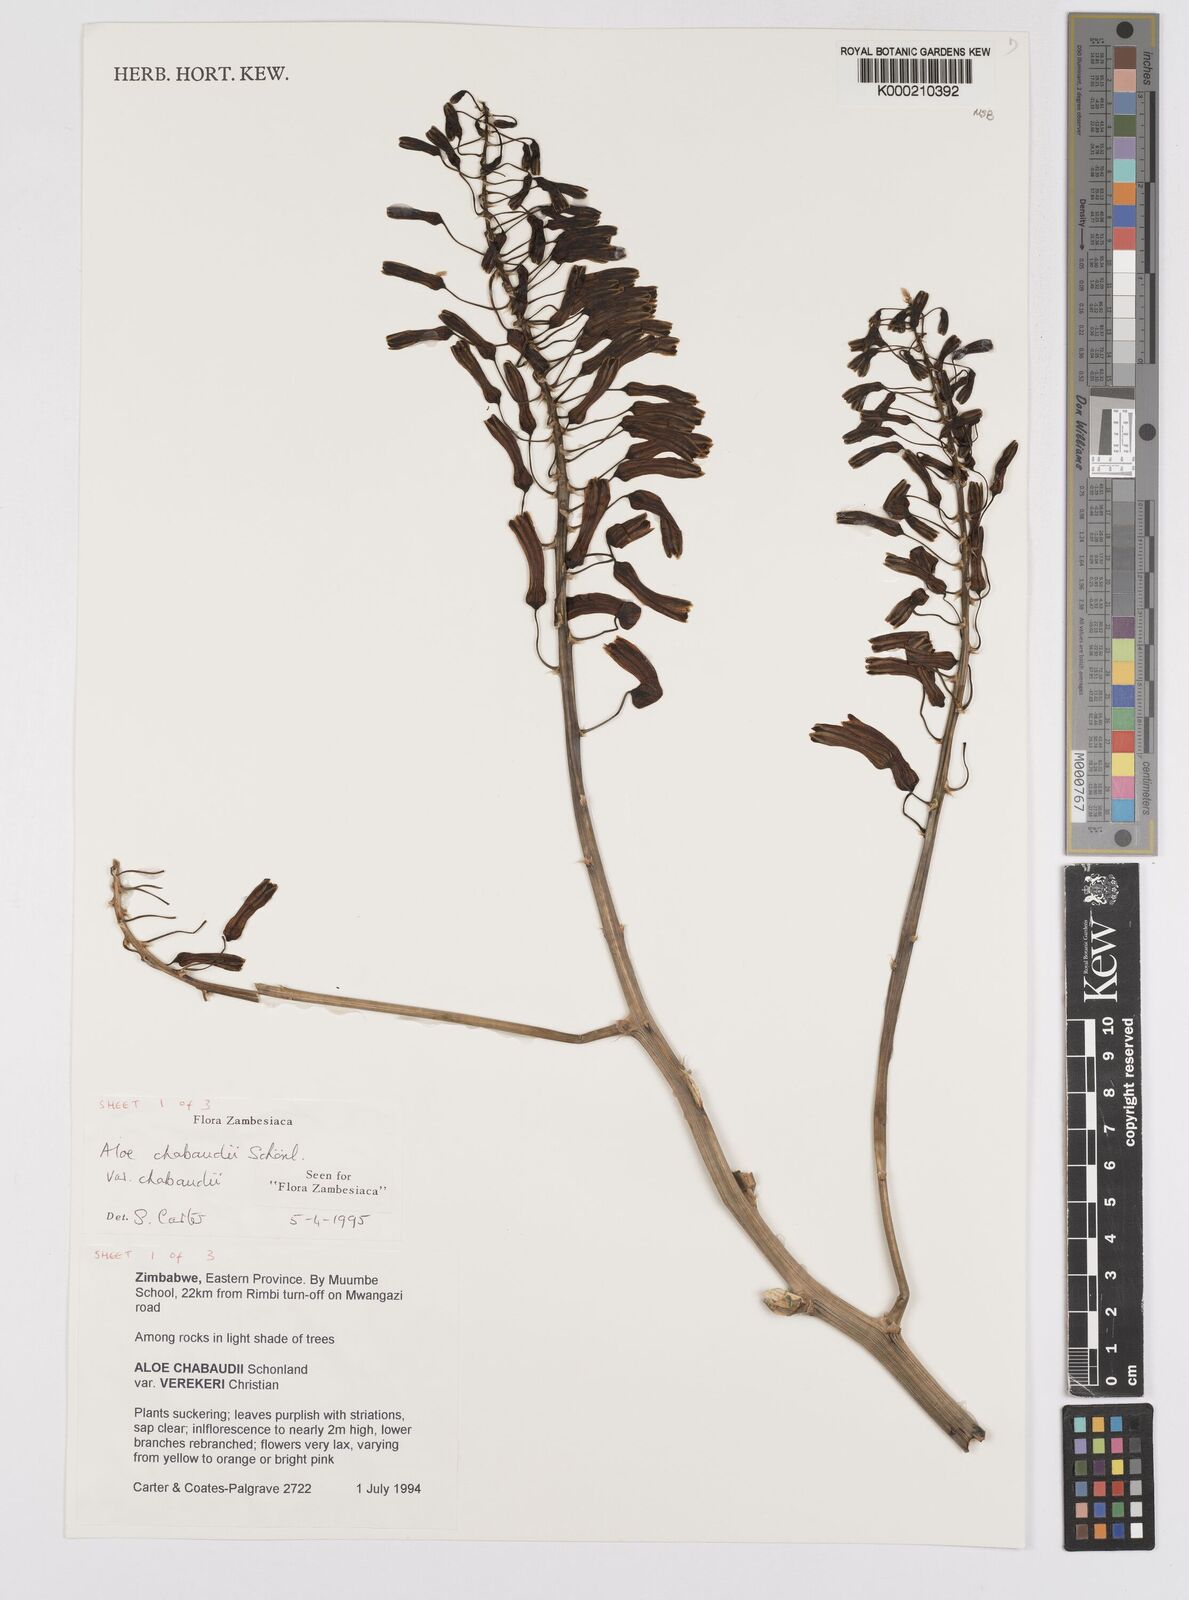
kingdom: Plantae
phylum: Tracheophyta
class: Liliopsida
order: Asparagales
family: Asphodelaceae
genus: Aloe
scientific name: Aloe chabaudii
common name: Chabaud's aloe
